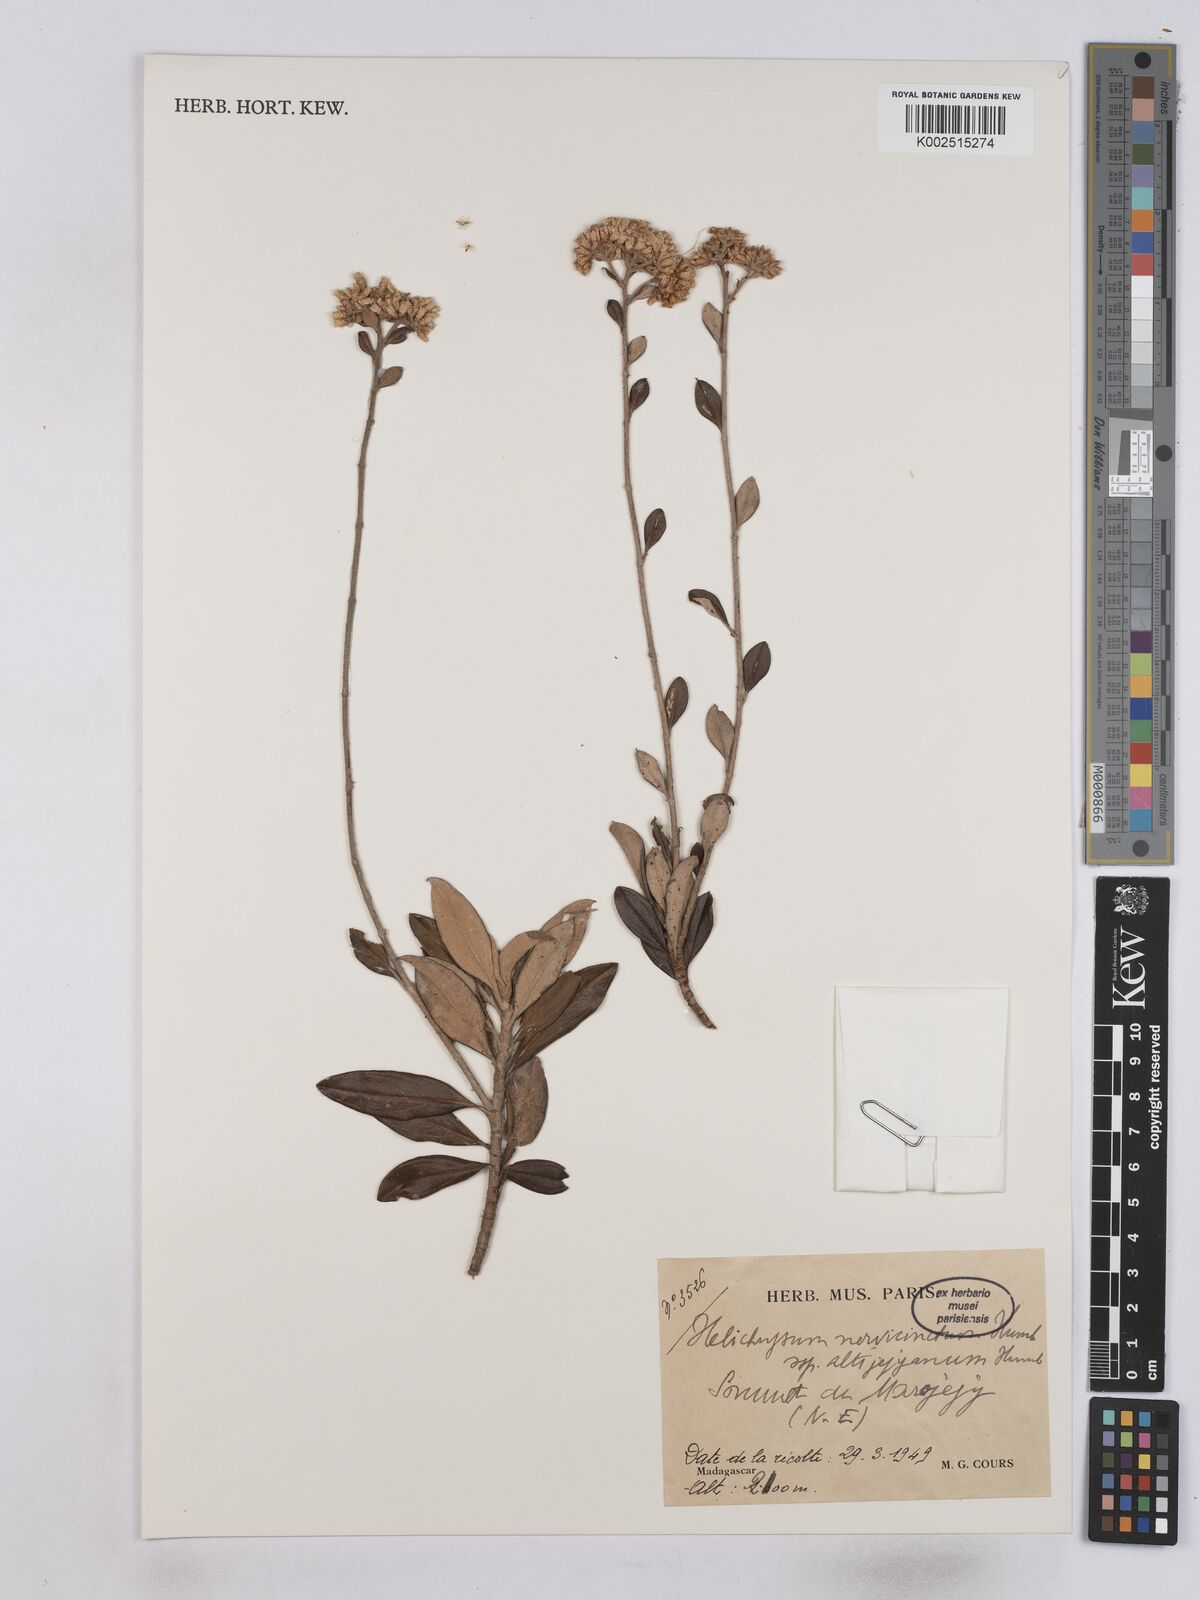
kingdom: Plantae
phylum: Tracheophyta
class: Magnoliopsida
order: Asterales
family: Asteraceae
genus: Helichrysum
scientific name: Helichrysum nervicinctum
